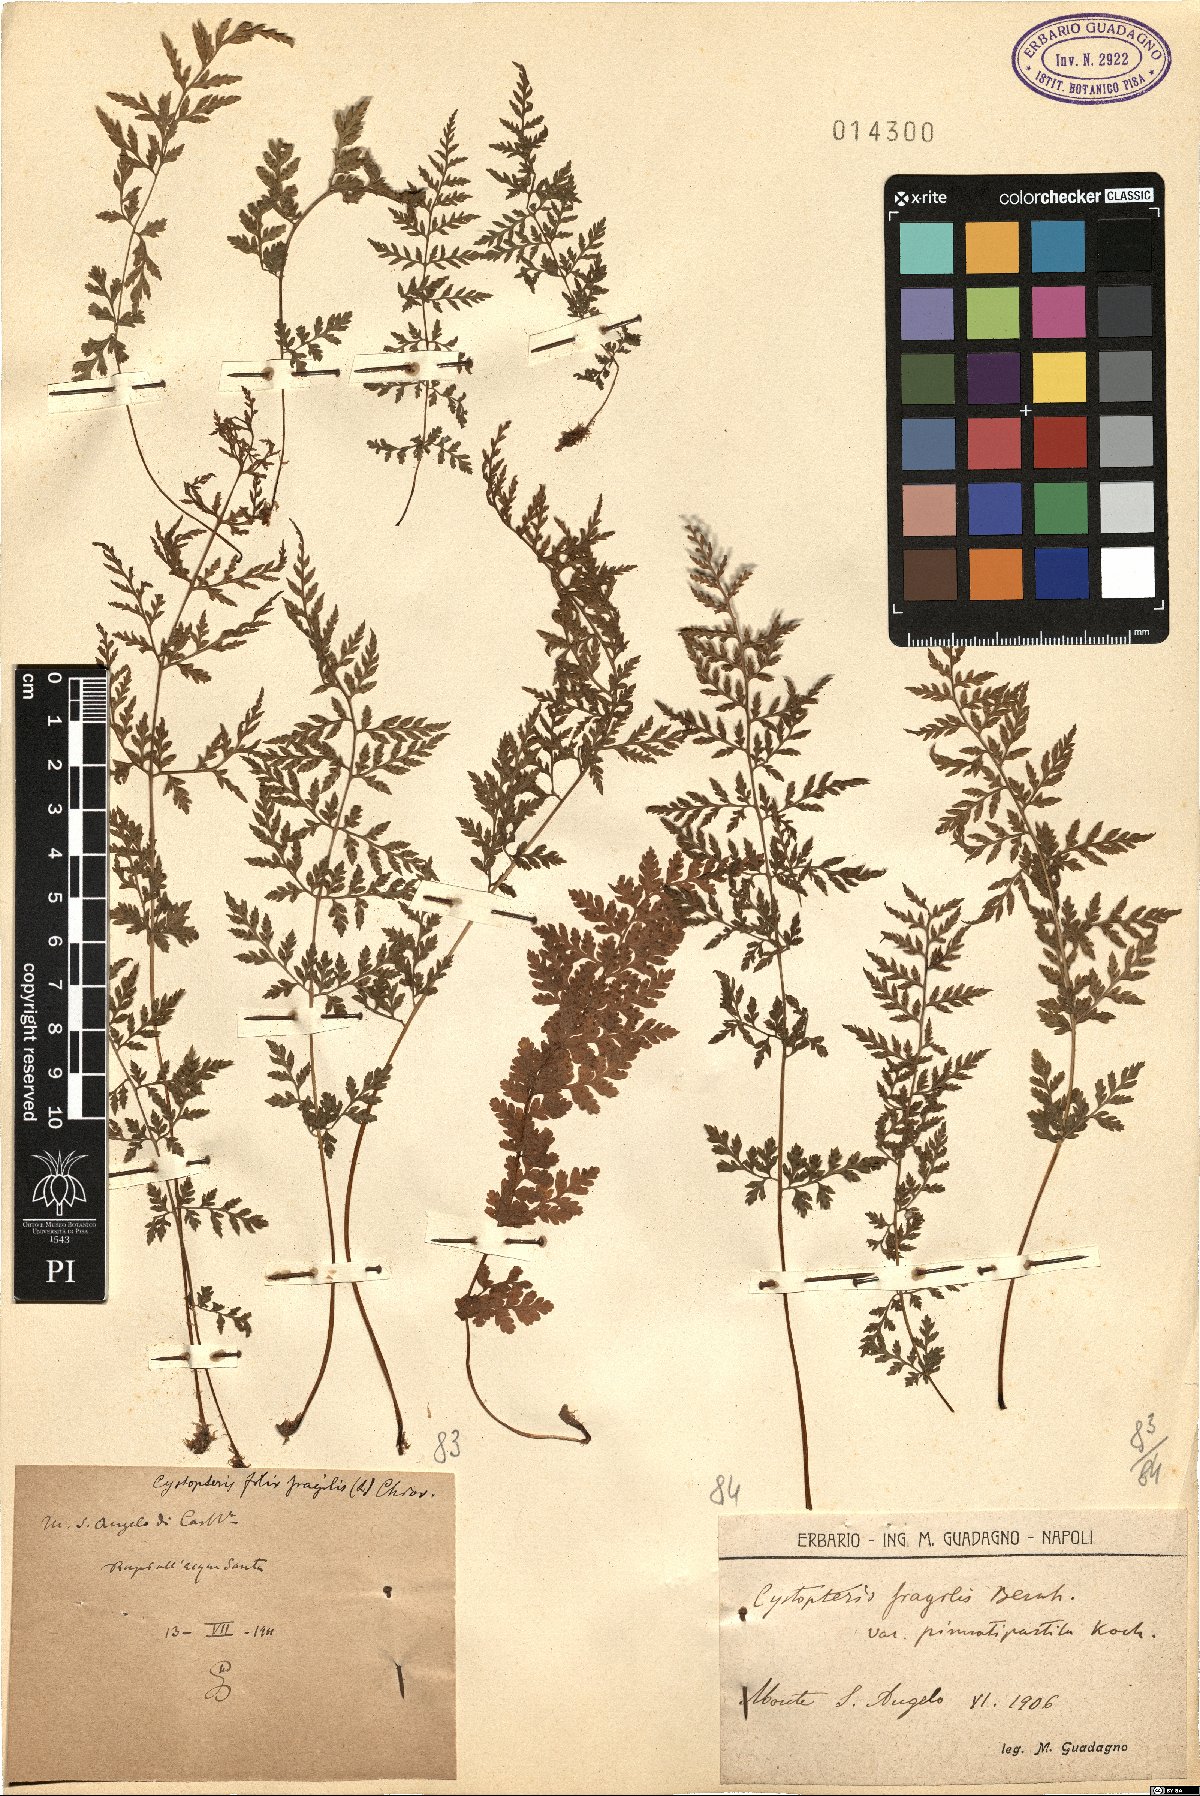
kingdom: Plantae
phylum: Tracheophyta
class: Polypodiopsida
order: Polypodiales
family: Cystopteridaceae
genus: Cystopteris
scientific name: Cystopteris fragilis
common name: Brittle bladder fern
